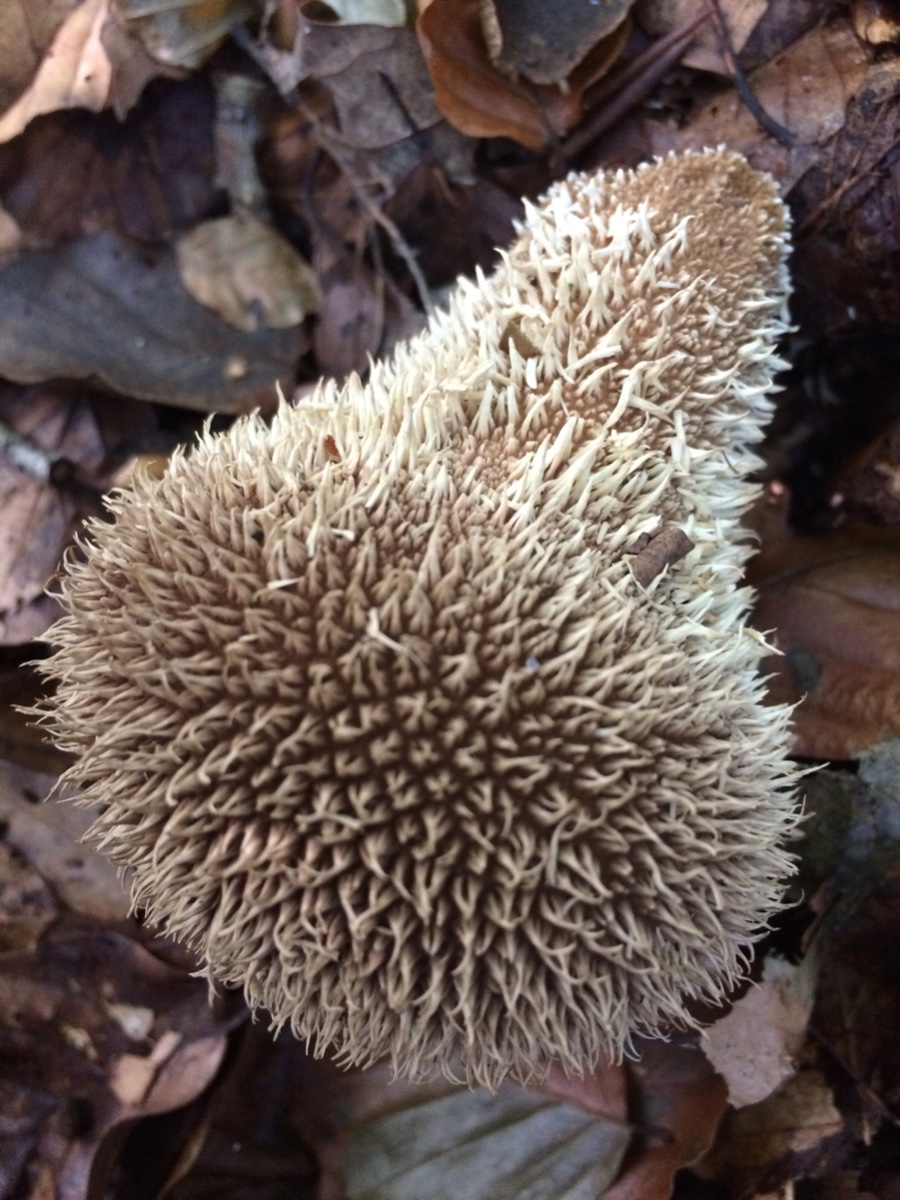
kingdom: Fungi
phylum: Basidiomycota
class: Agaricomycetes
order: Agaricales
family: Lycoperdaceae
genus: Lycoperdon
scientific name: Lycoperdon echinatum
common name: pindsvine-støvbold
